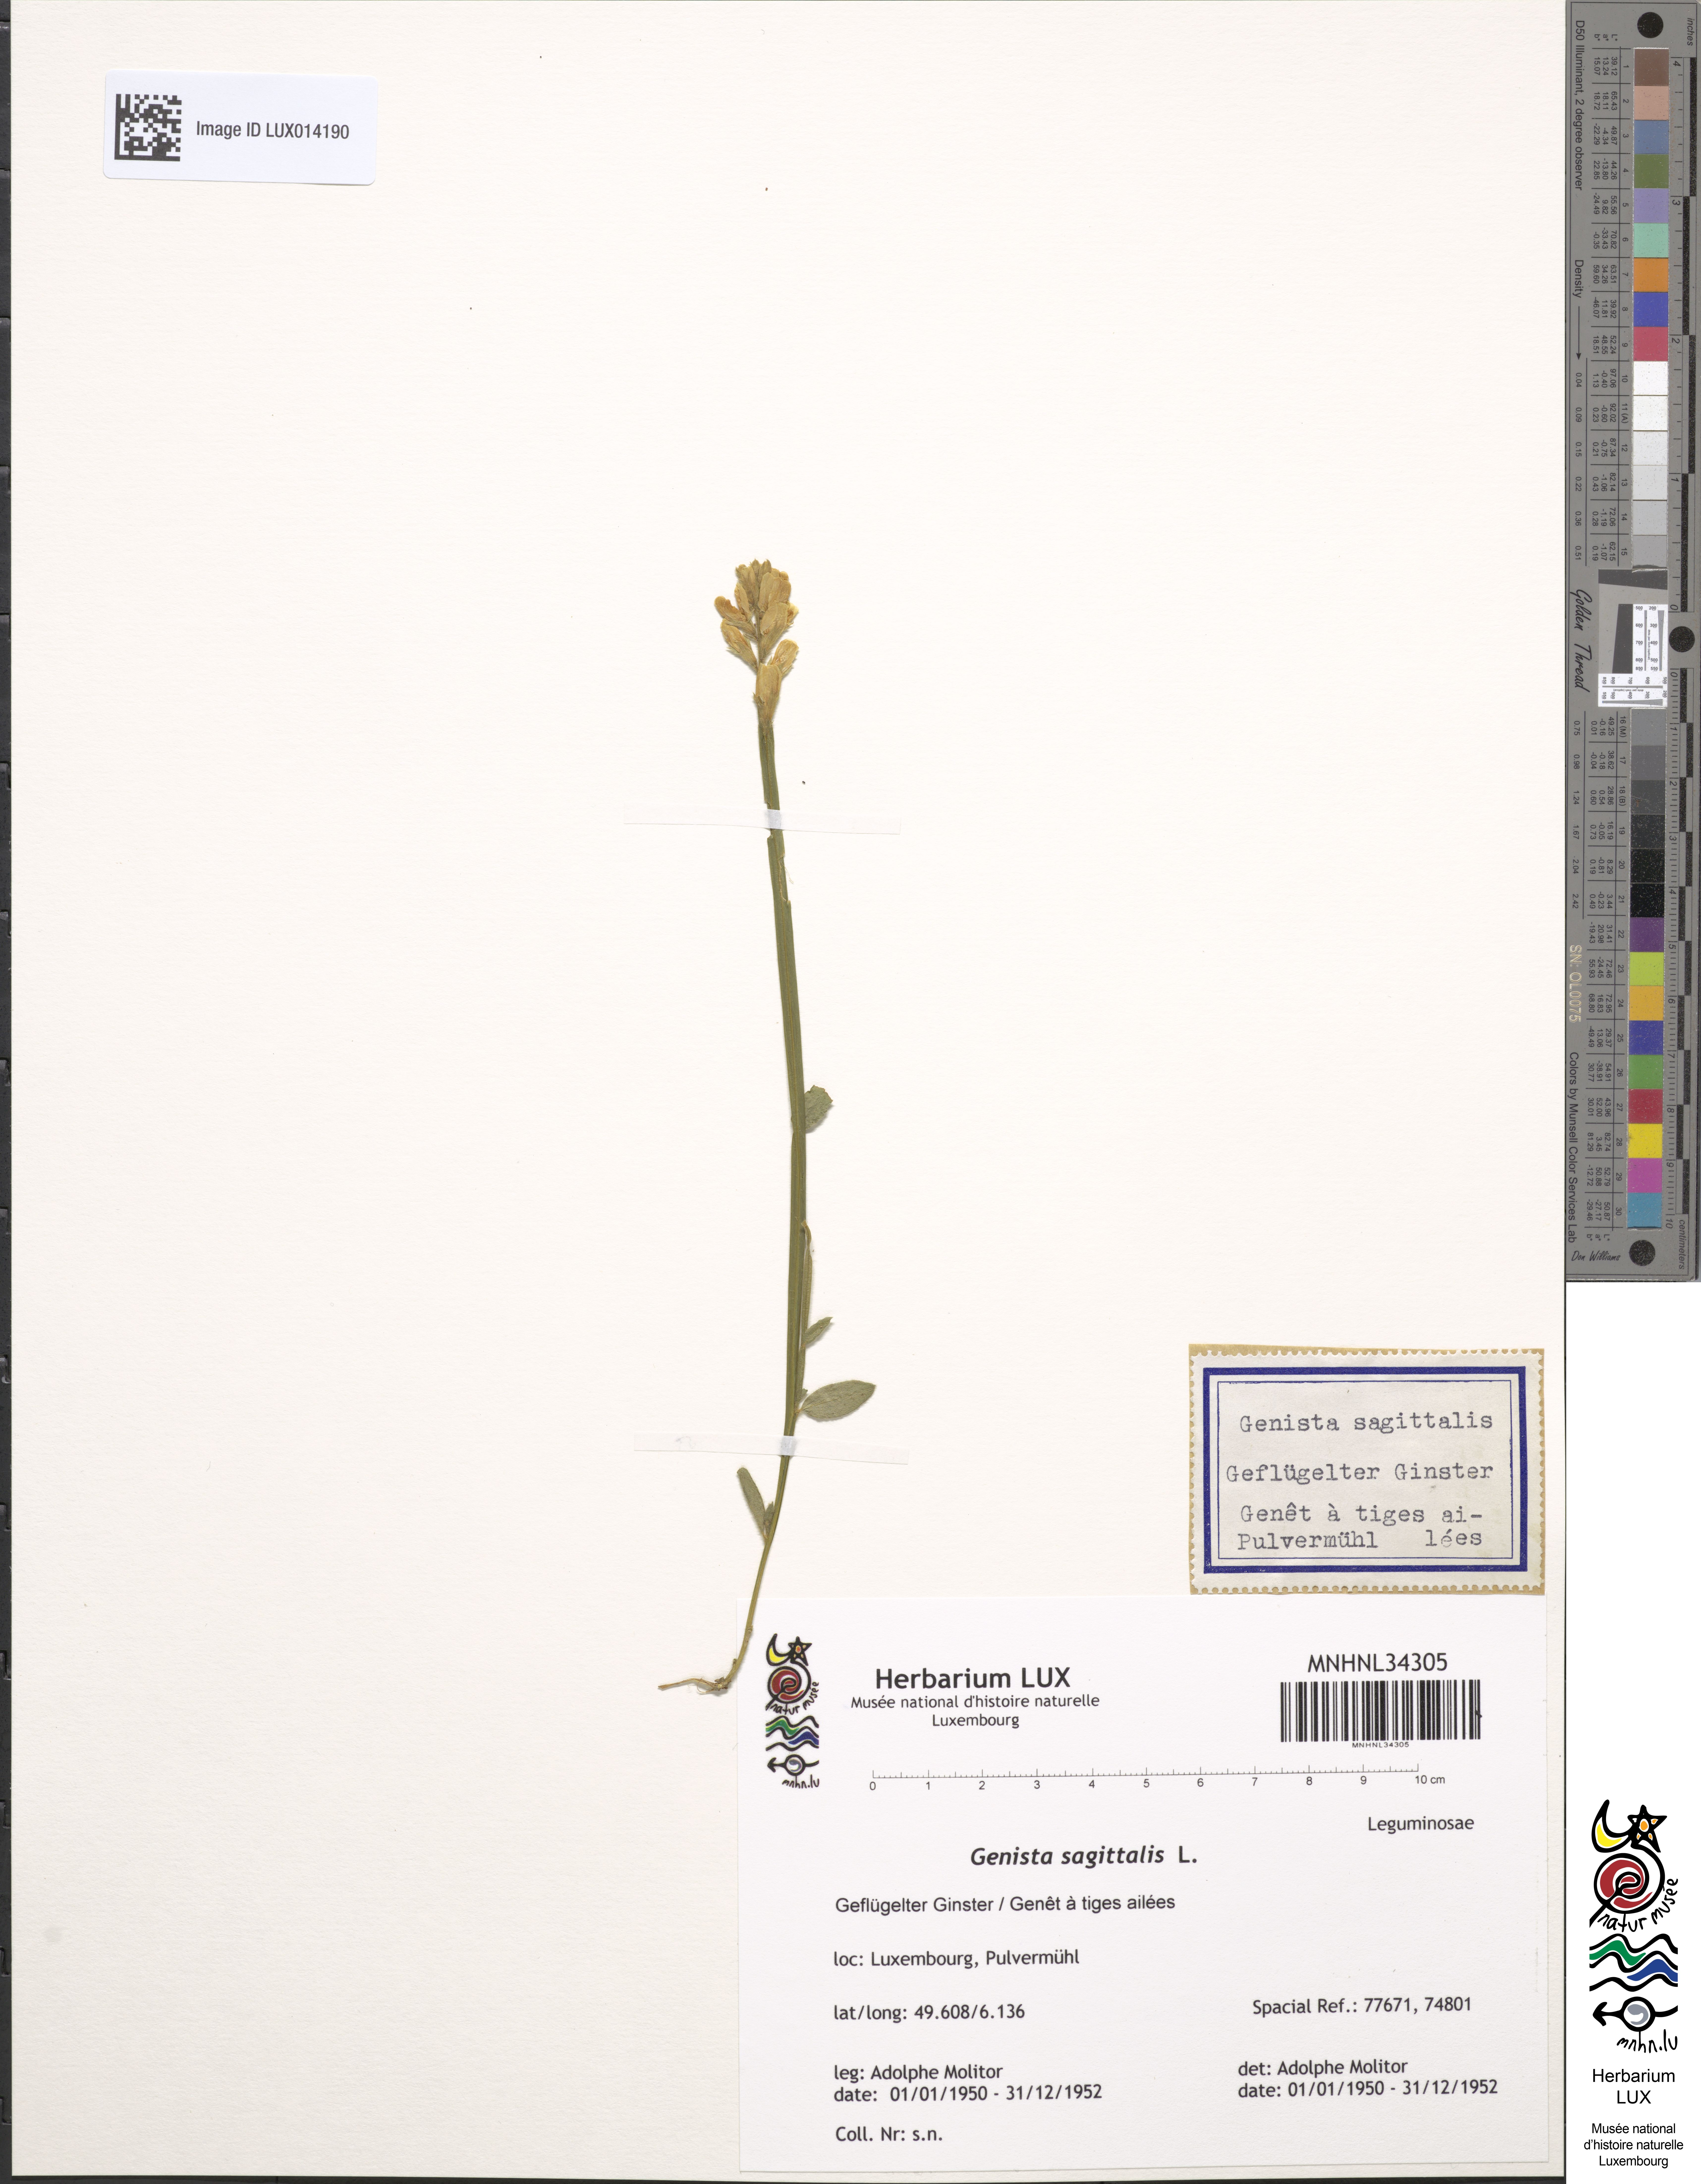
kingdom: Plantae
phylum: Tracheophyta
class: Magnoliopsida
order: Fabales
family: Fabaceae
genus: Genista
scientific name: Genista sagittalis
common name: Winged greenweed
